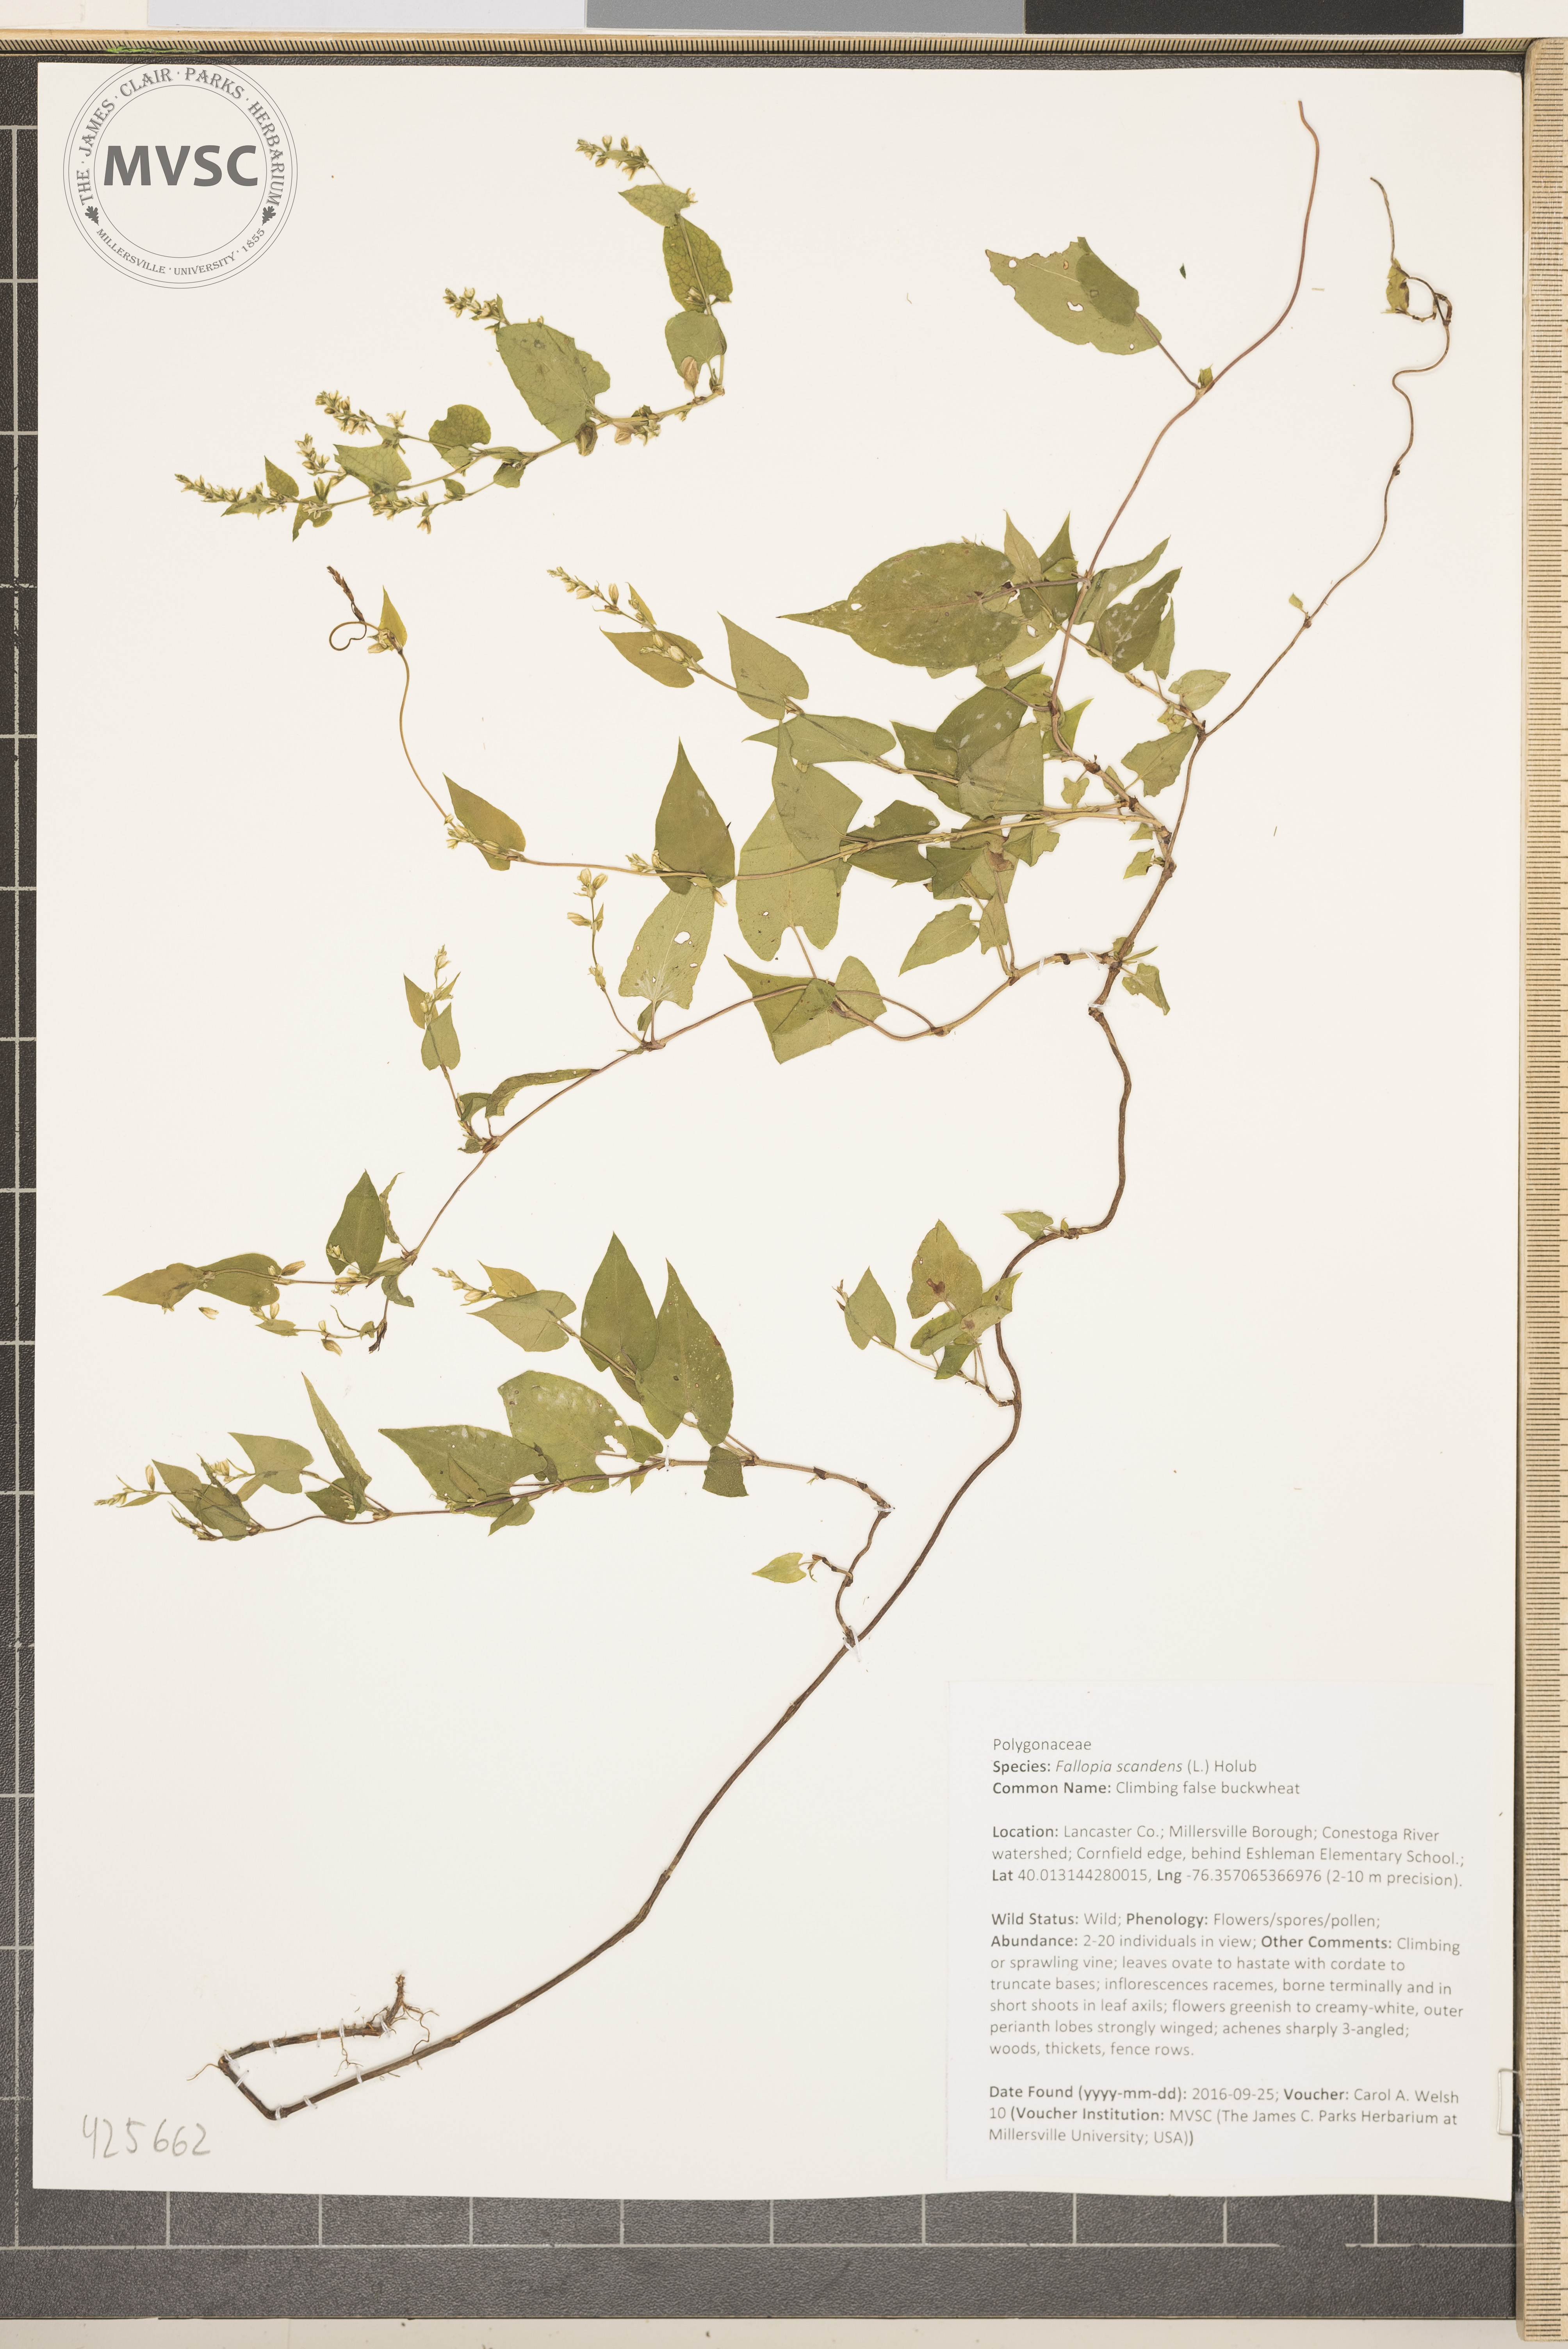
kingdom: Plantae
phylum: Tracheophyta
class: Magnoliopsida
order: Caryophyllales
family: Polygonaceae
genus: Fallopia
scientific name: Fallopia scandens
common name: Climbing false buckwheat
